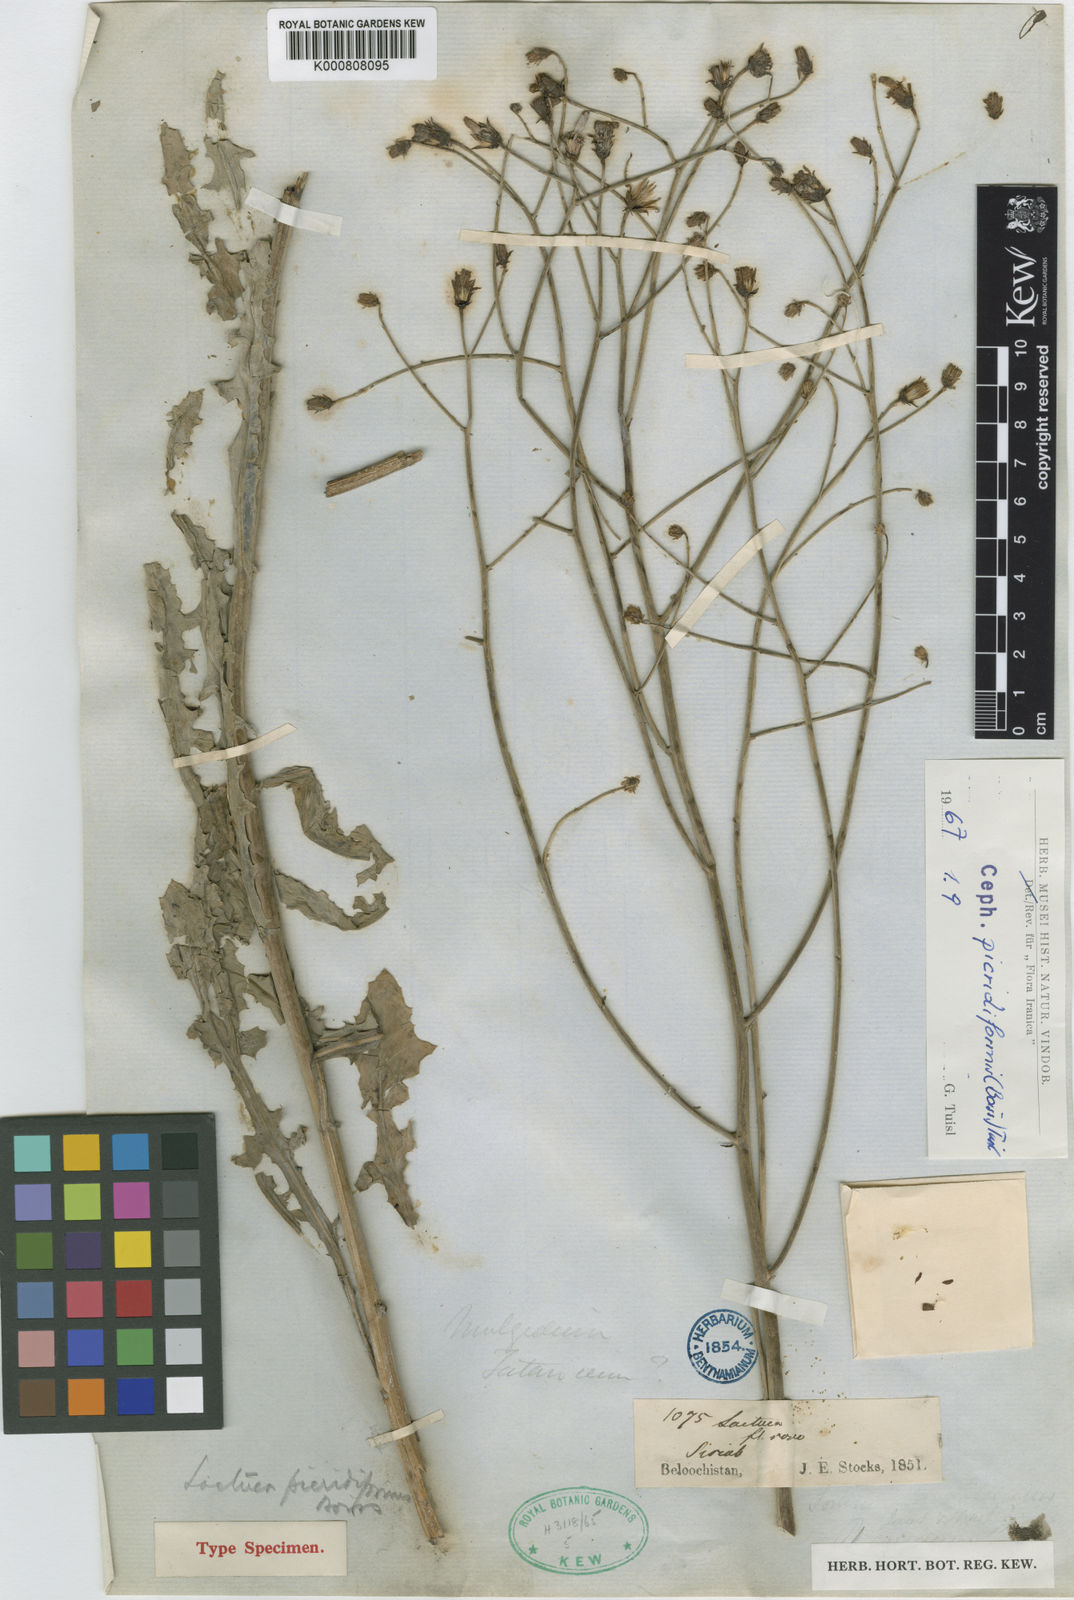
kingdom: Plantae
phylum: Tracheophyta
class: Magnoliopsida
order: Asterales
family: Asteraceae
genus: Lactuca
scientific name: Lactuca picridiformis
